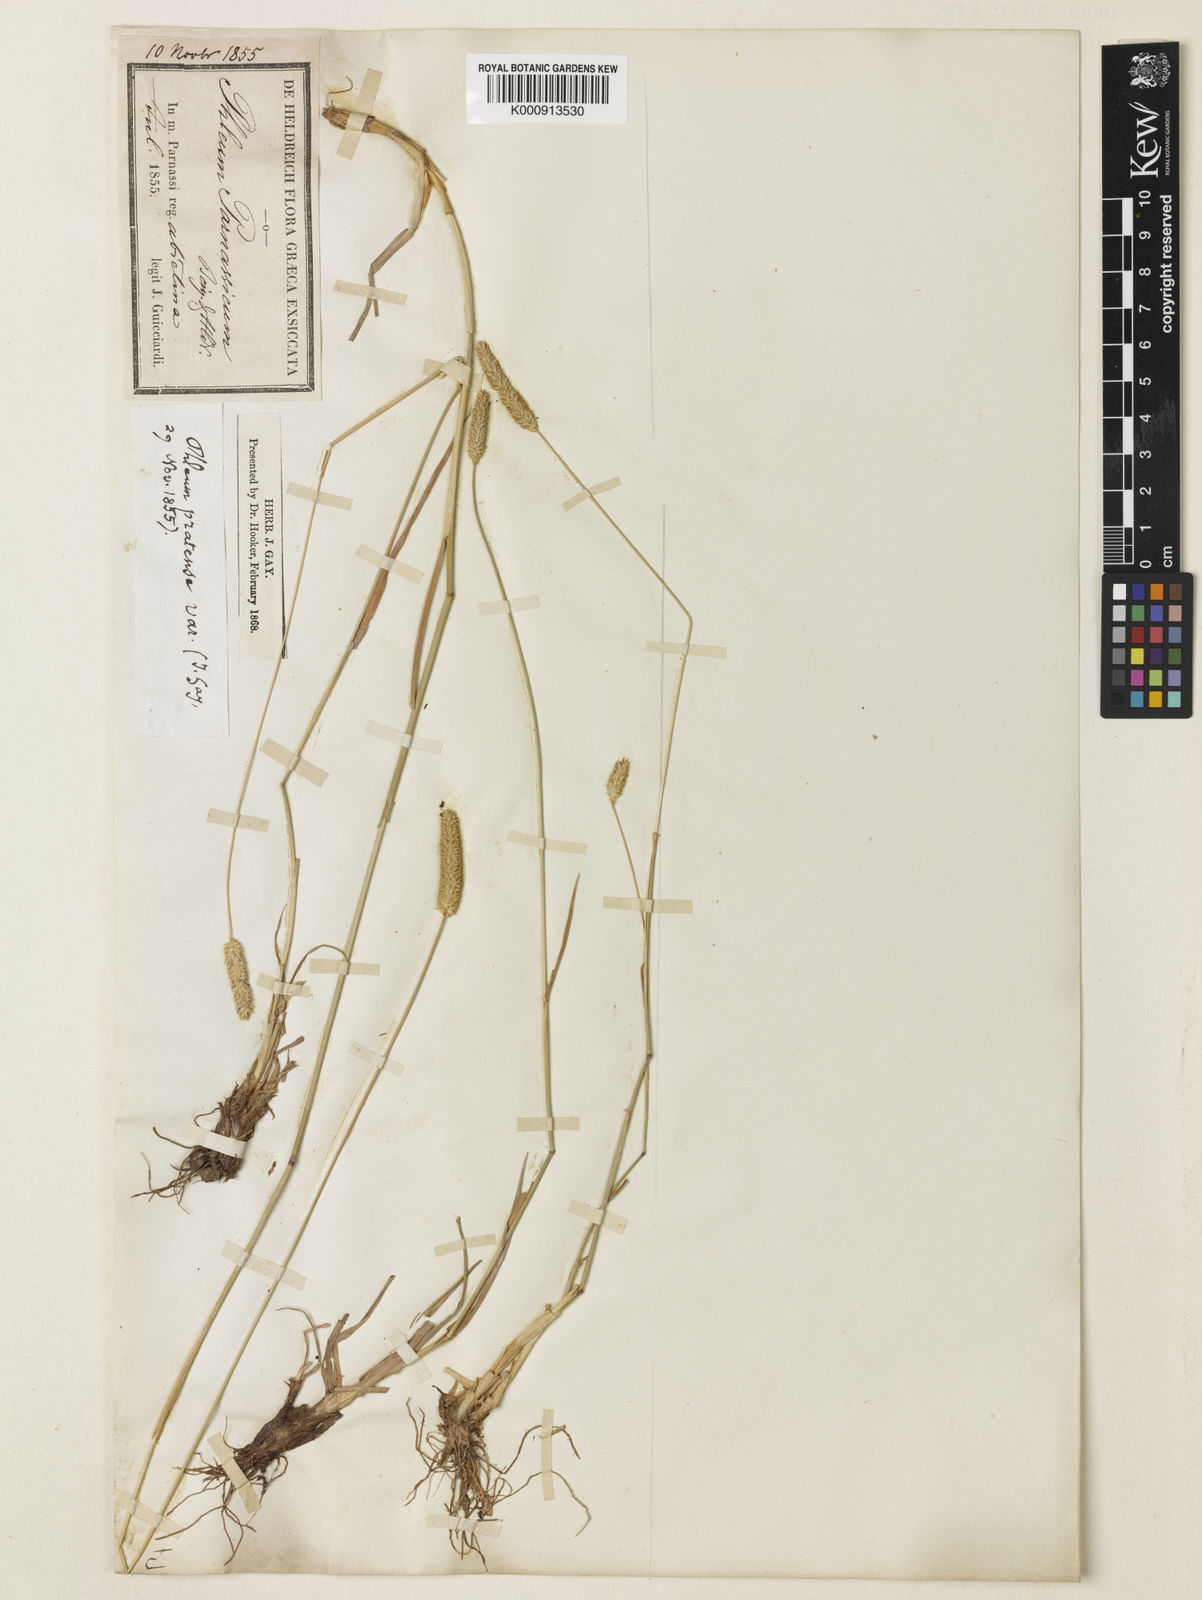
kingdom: Plantae
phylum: Tracheophyta
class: Liliopsida
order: Poales
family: Poaceae
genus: Phleum
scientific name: Phleum pratense
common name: Timothy grass
